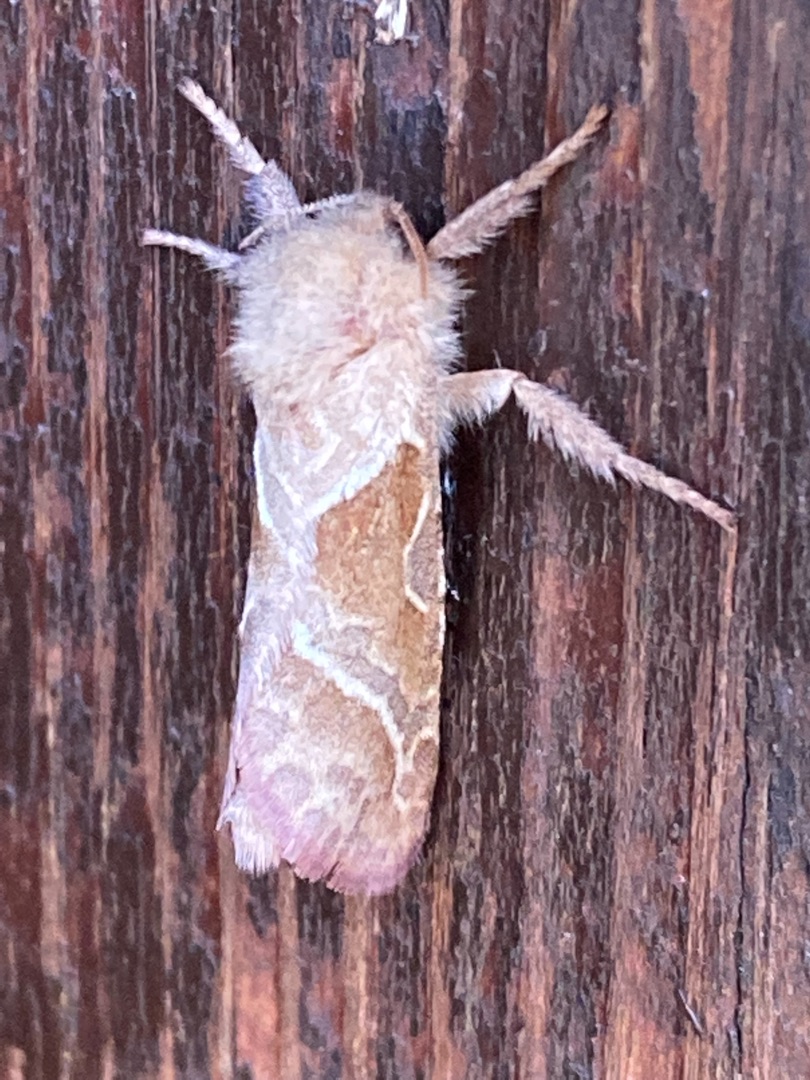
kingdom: Animalia
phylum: Arthropoda
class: Insecta
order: Lepidoptera
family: Hepialidae
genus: Triodia
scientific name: Triodia sylvina
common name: Skræpperodæder
